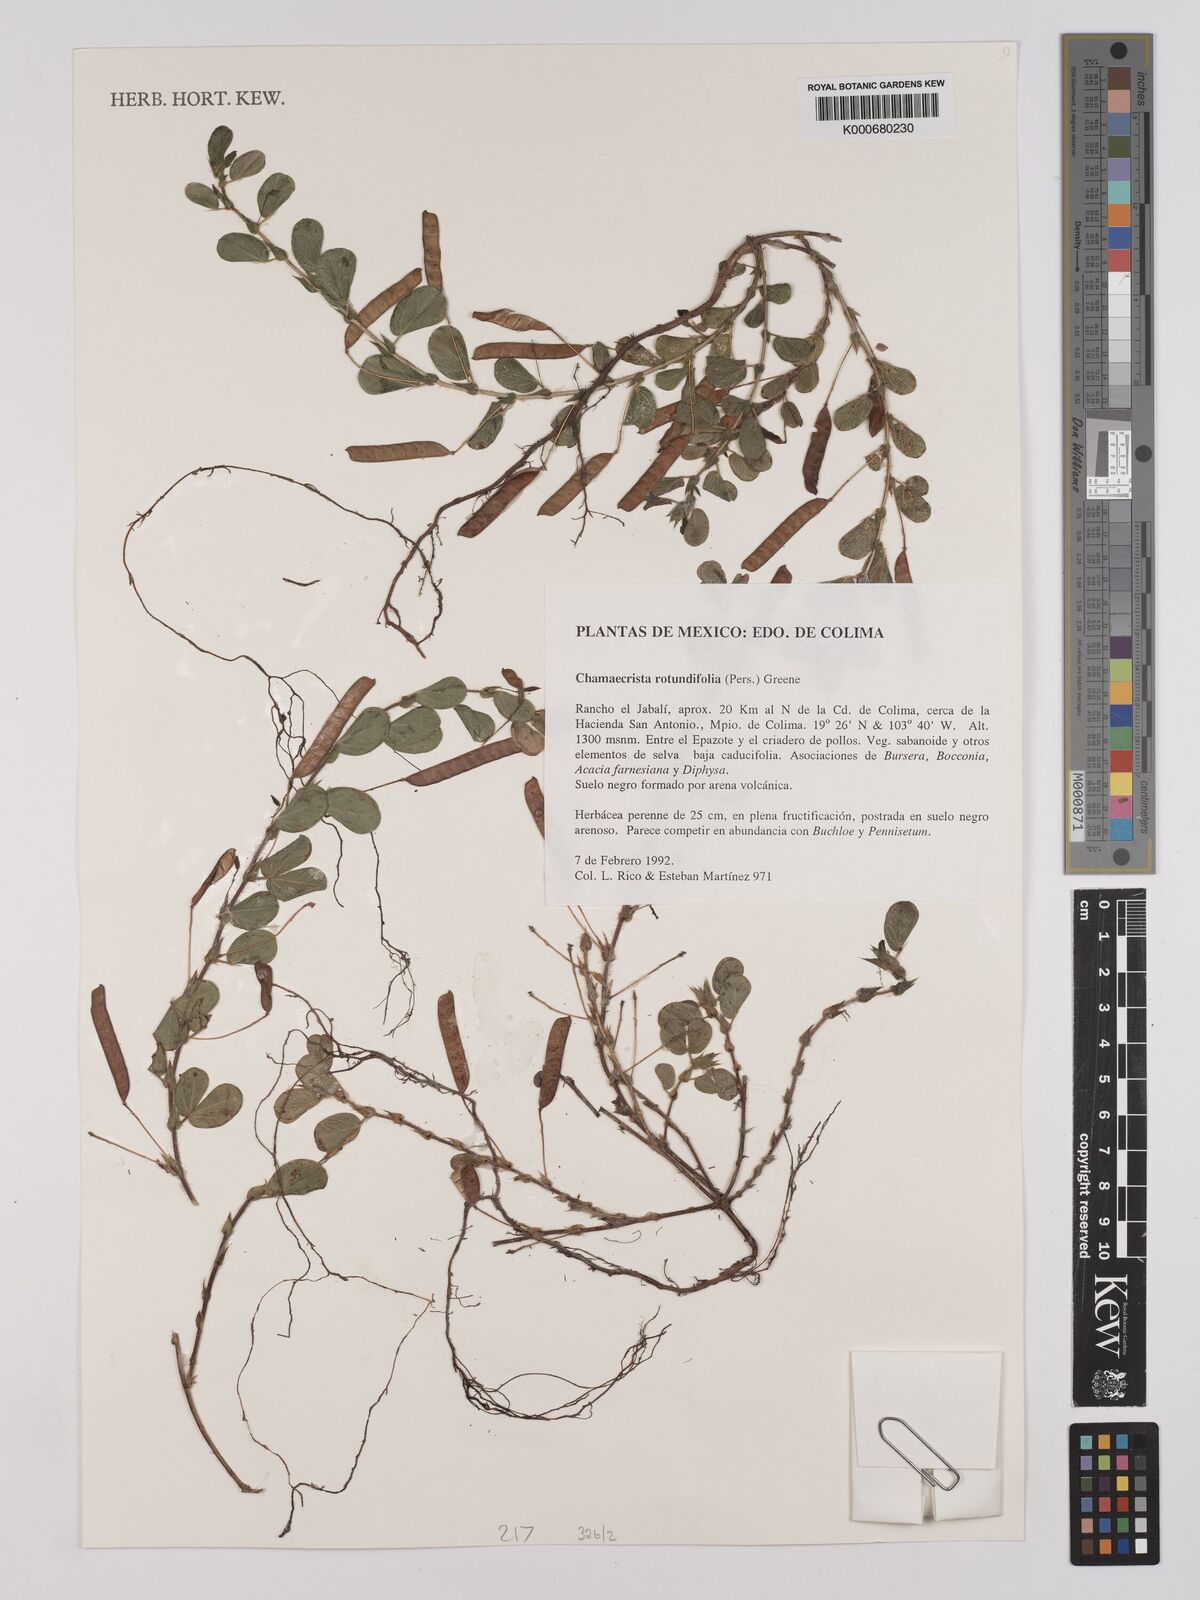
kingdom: Plantae
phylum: Tracheophyta
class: Magnoliopsida
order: Fabales
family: Fabaceae
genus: Chamaecrista
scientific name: Chamaecrista rotundifolia
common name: Round-leaf cassia
